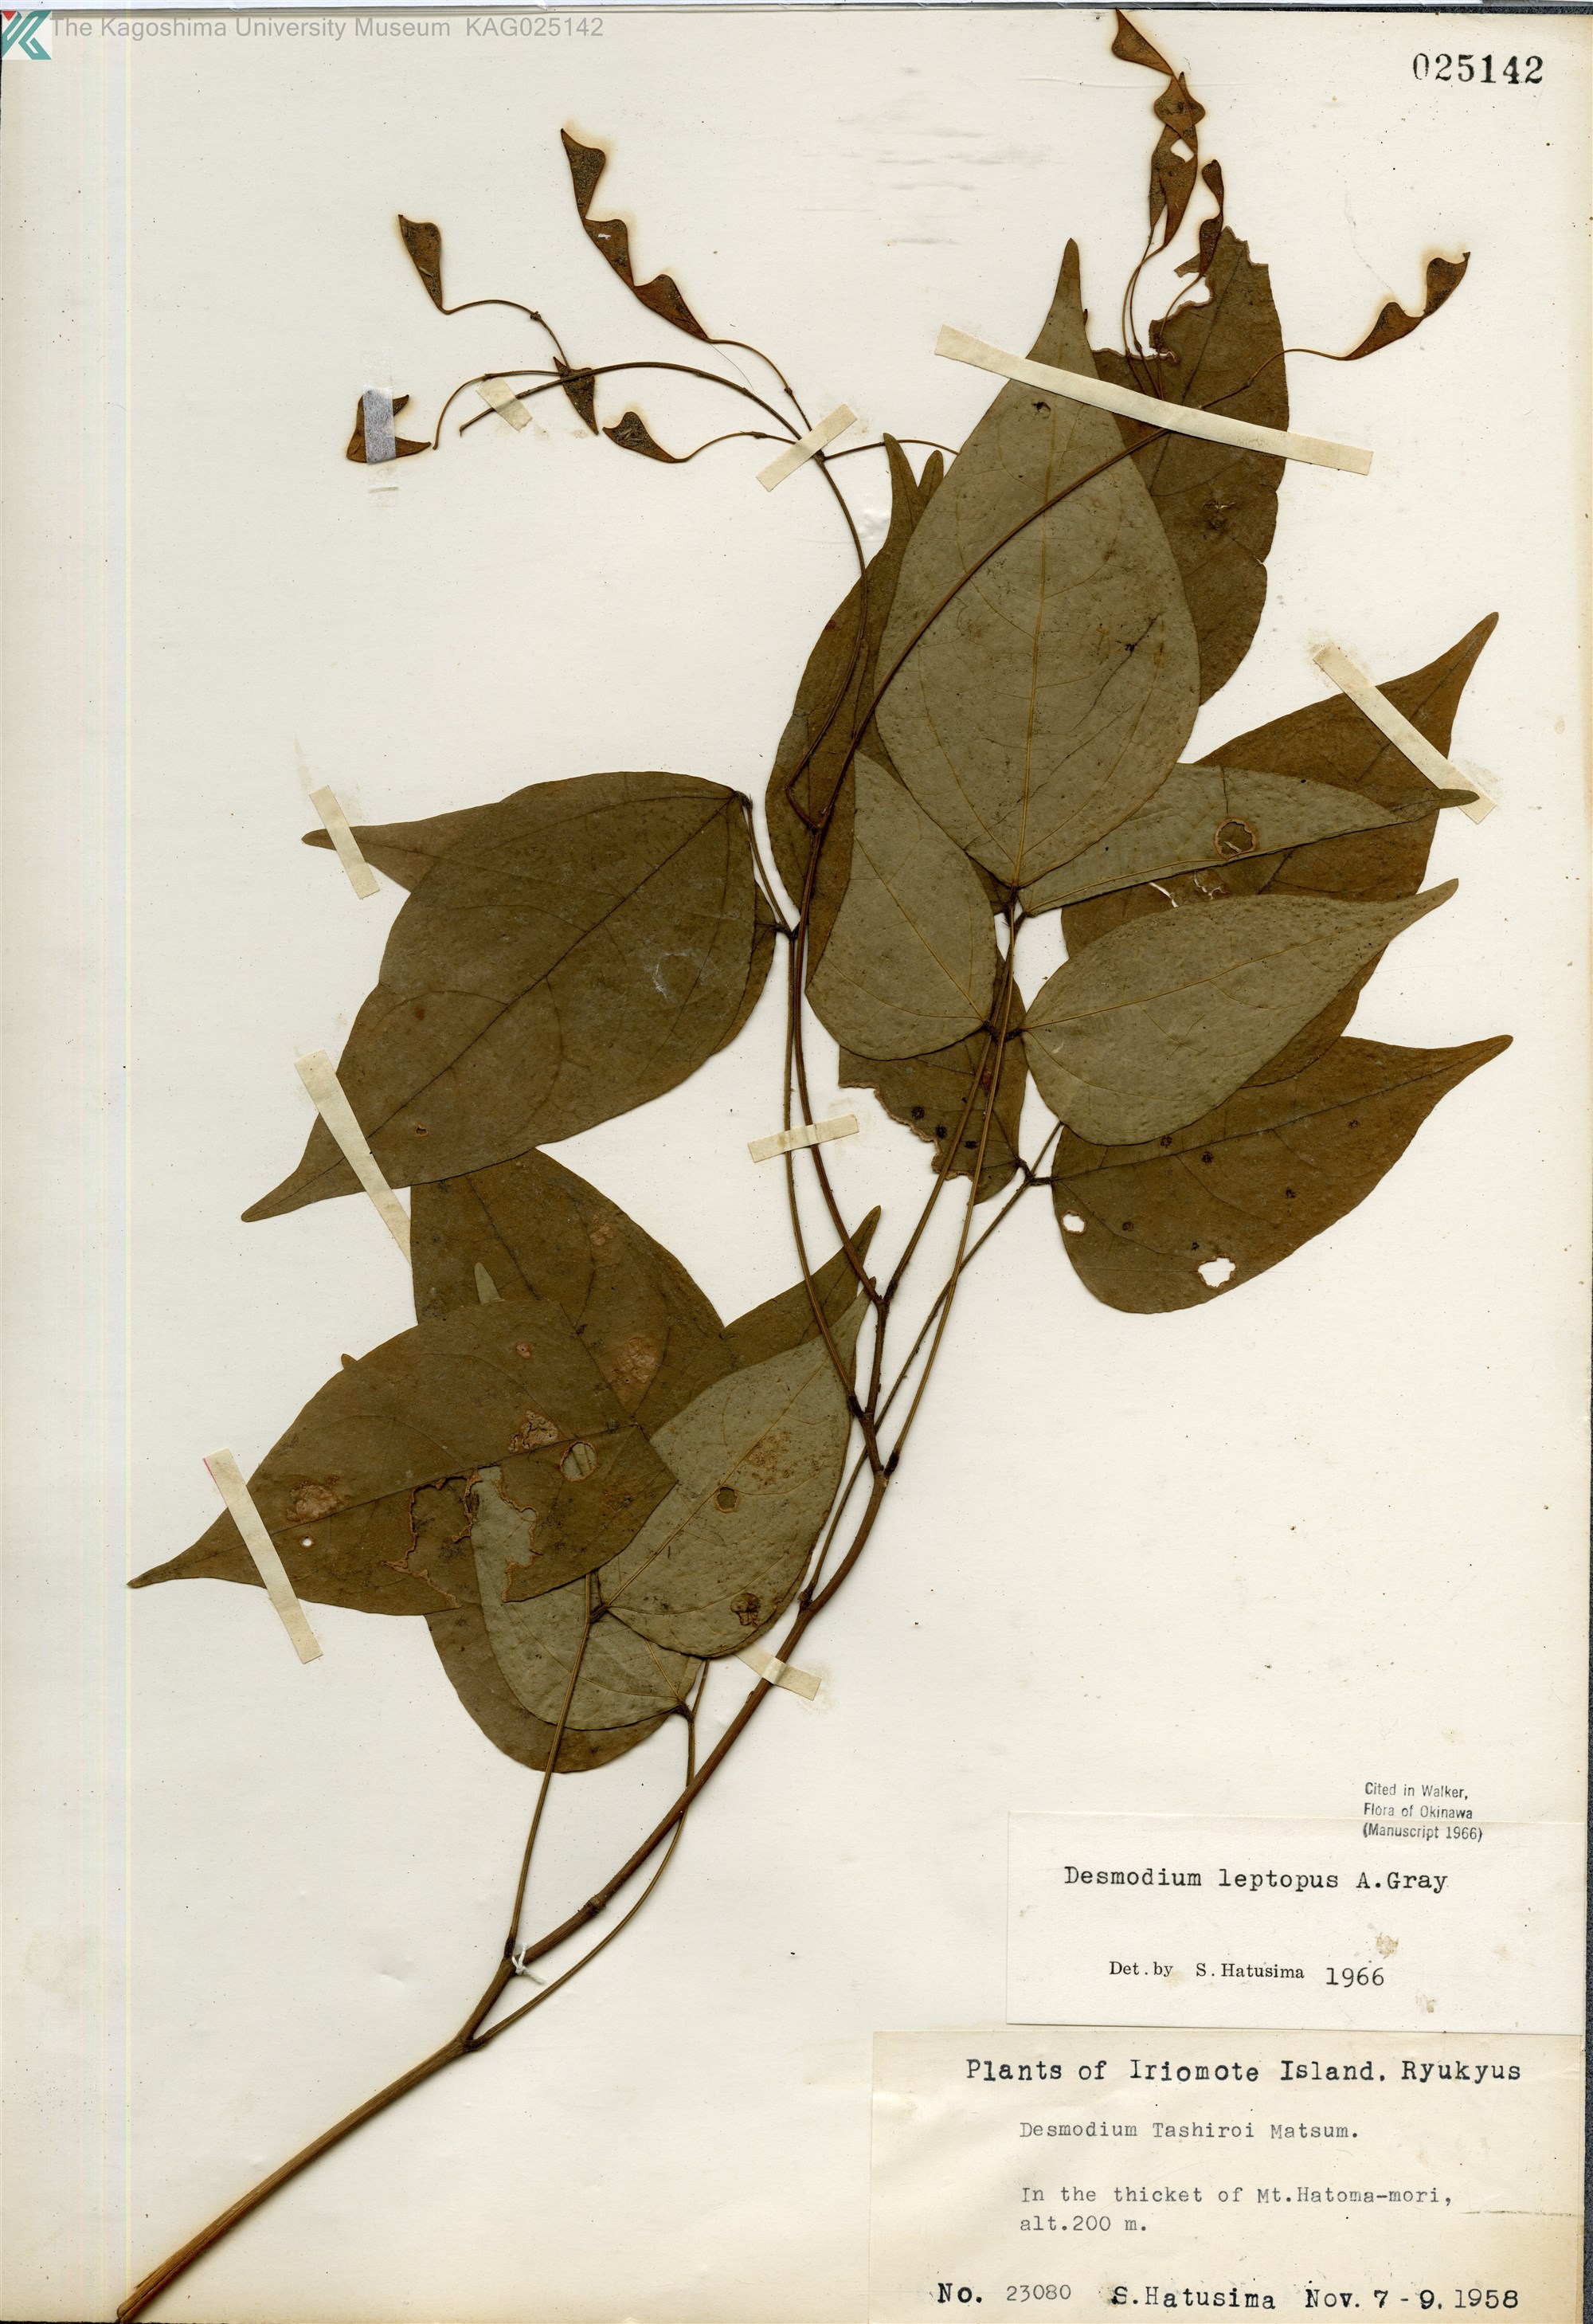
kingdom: Plantae
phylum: Tracheophyta
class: Magnoliopsida
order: Fabales
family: Fabaceae
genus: Hylodesmum
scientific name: Hylodesmum leptopus
